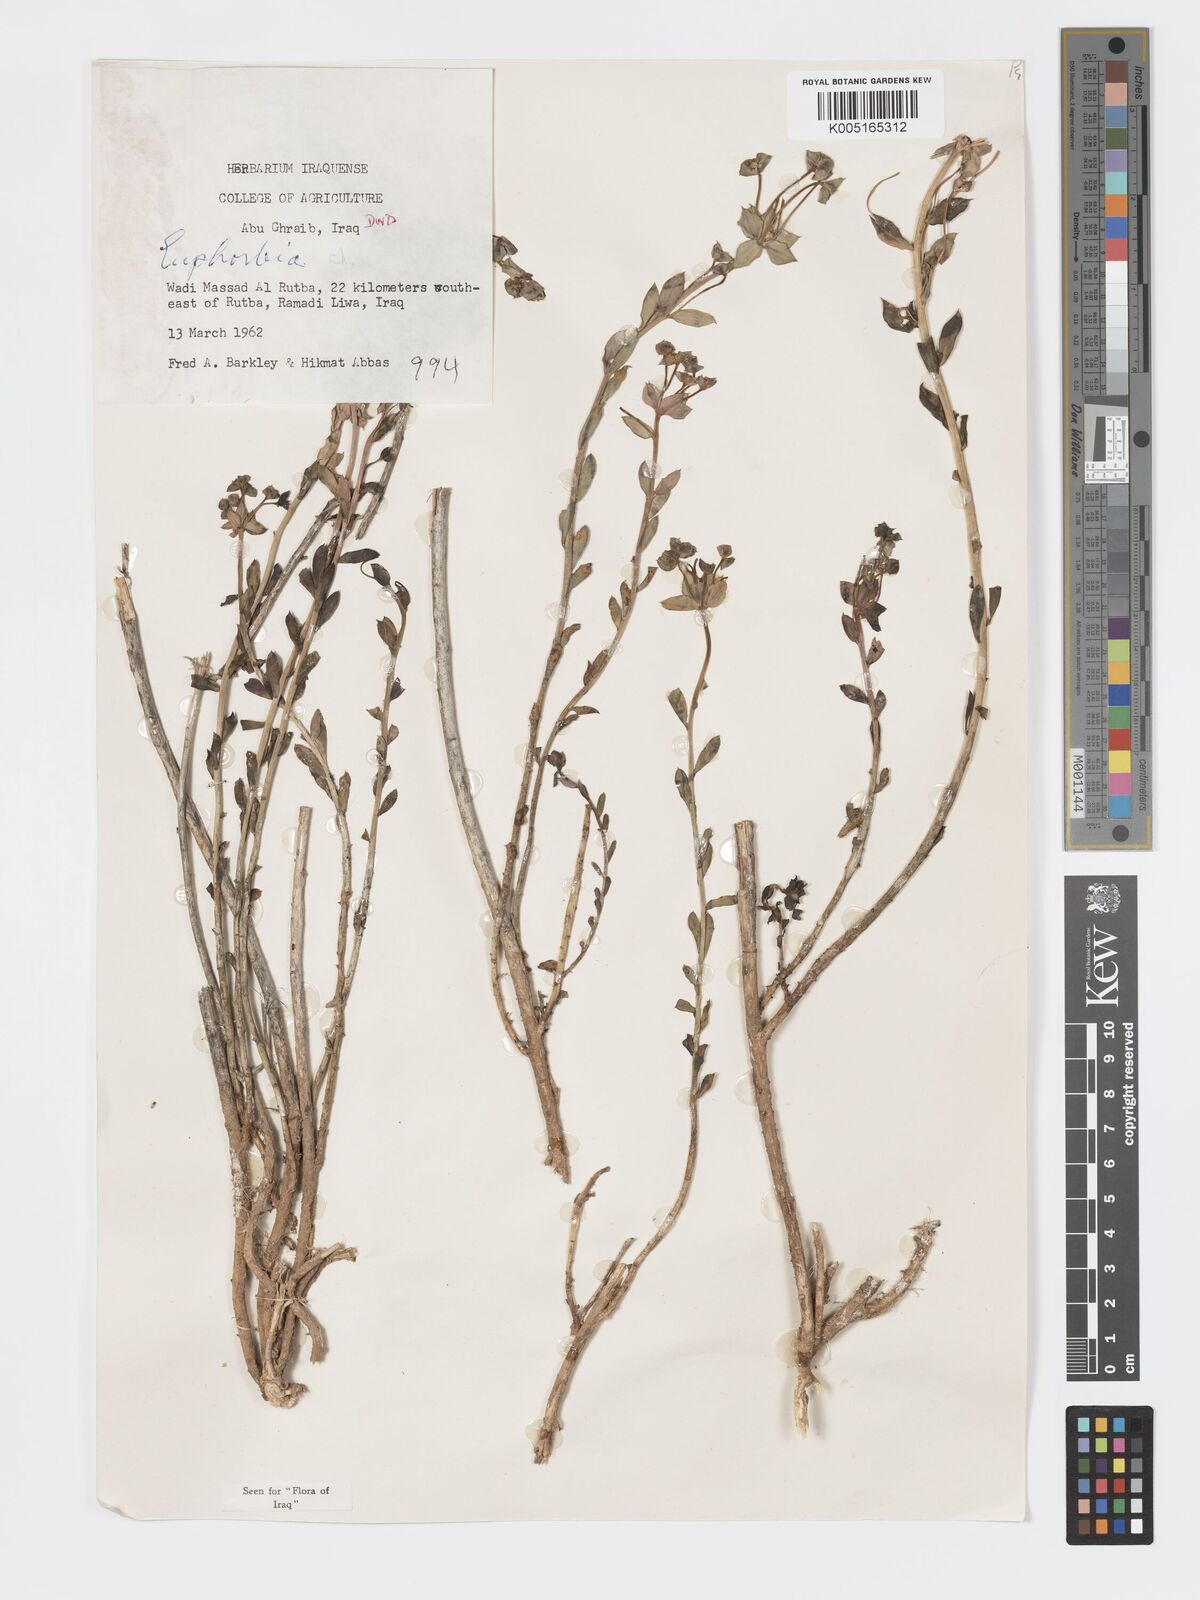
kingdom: Plantae
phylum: Tracheophyta
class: Magnoliopsida
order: Malpighiales
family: Euphorbiaceae
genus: Euphorbia
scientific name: Euphorbia cuspidata
